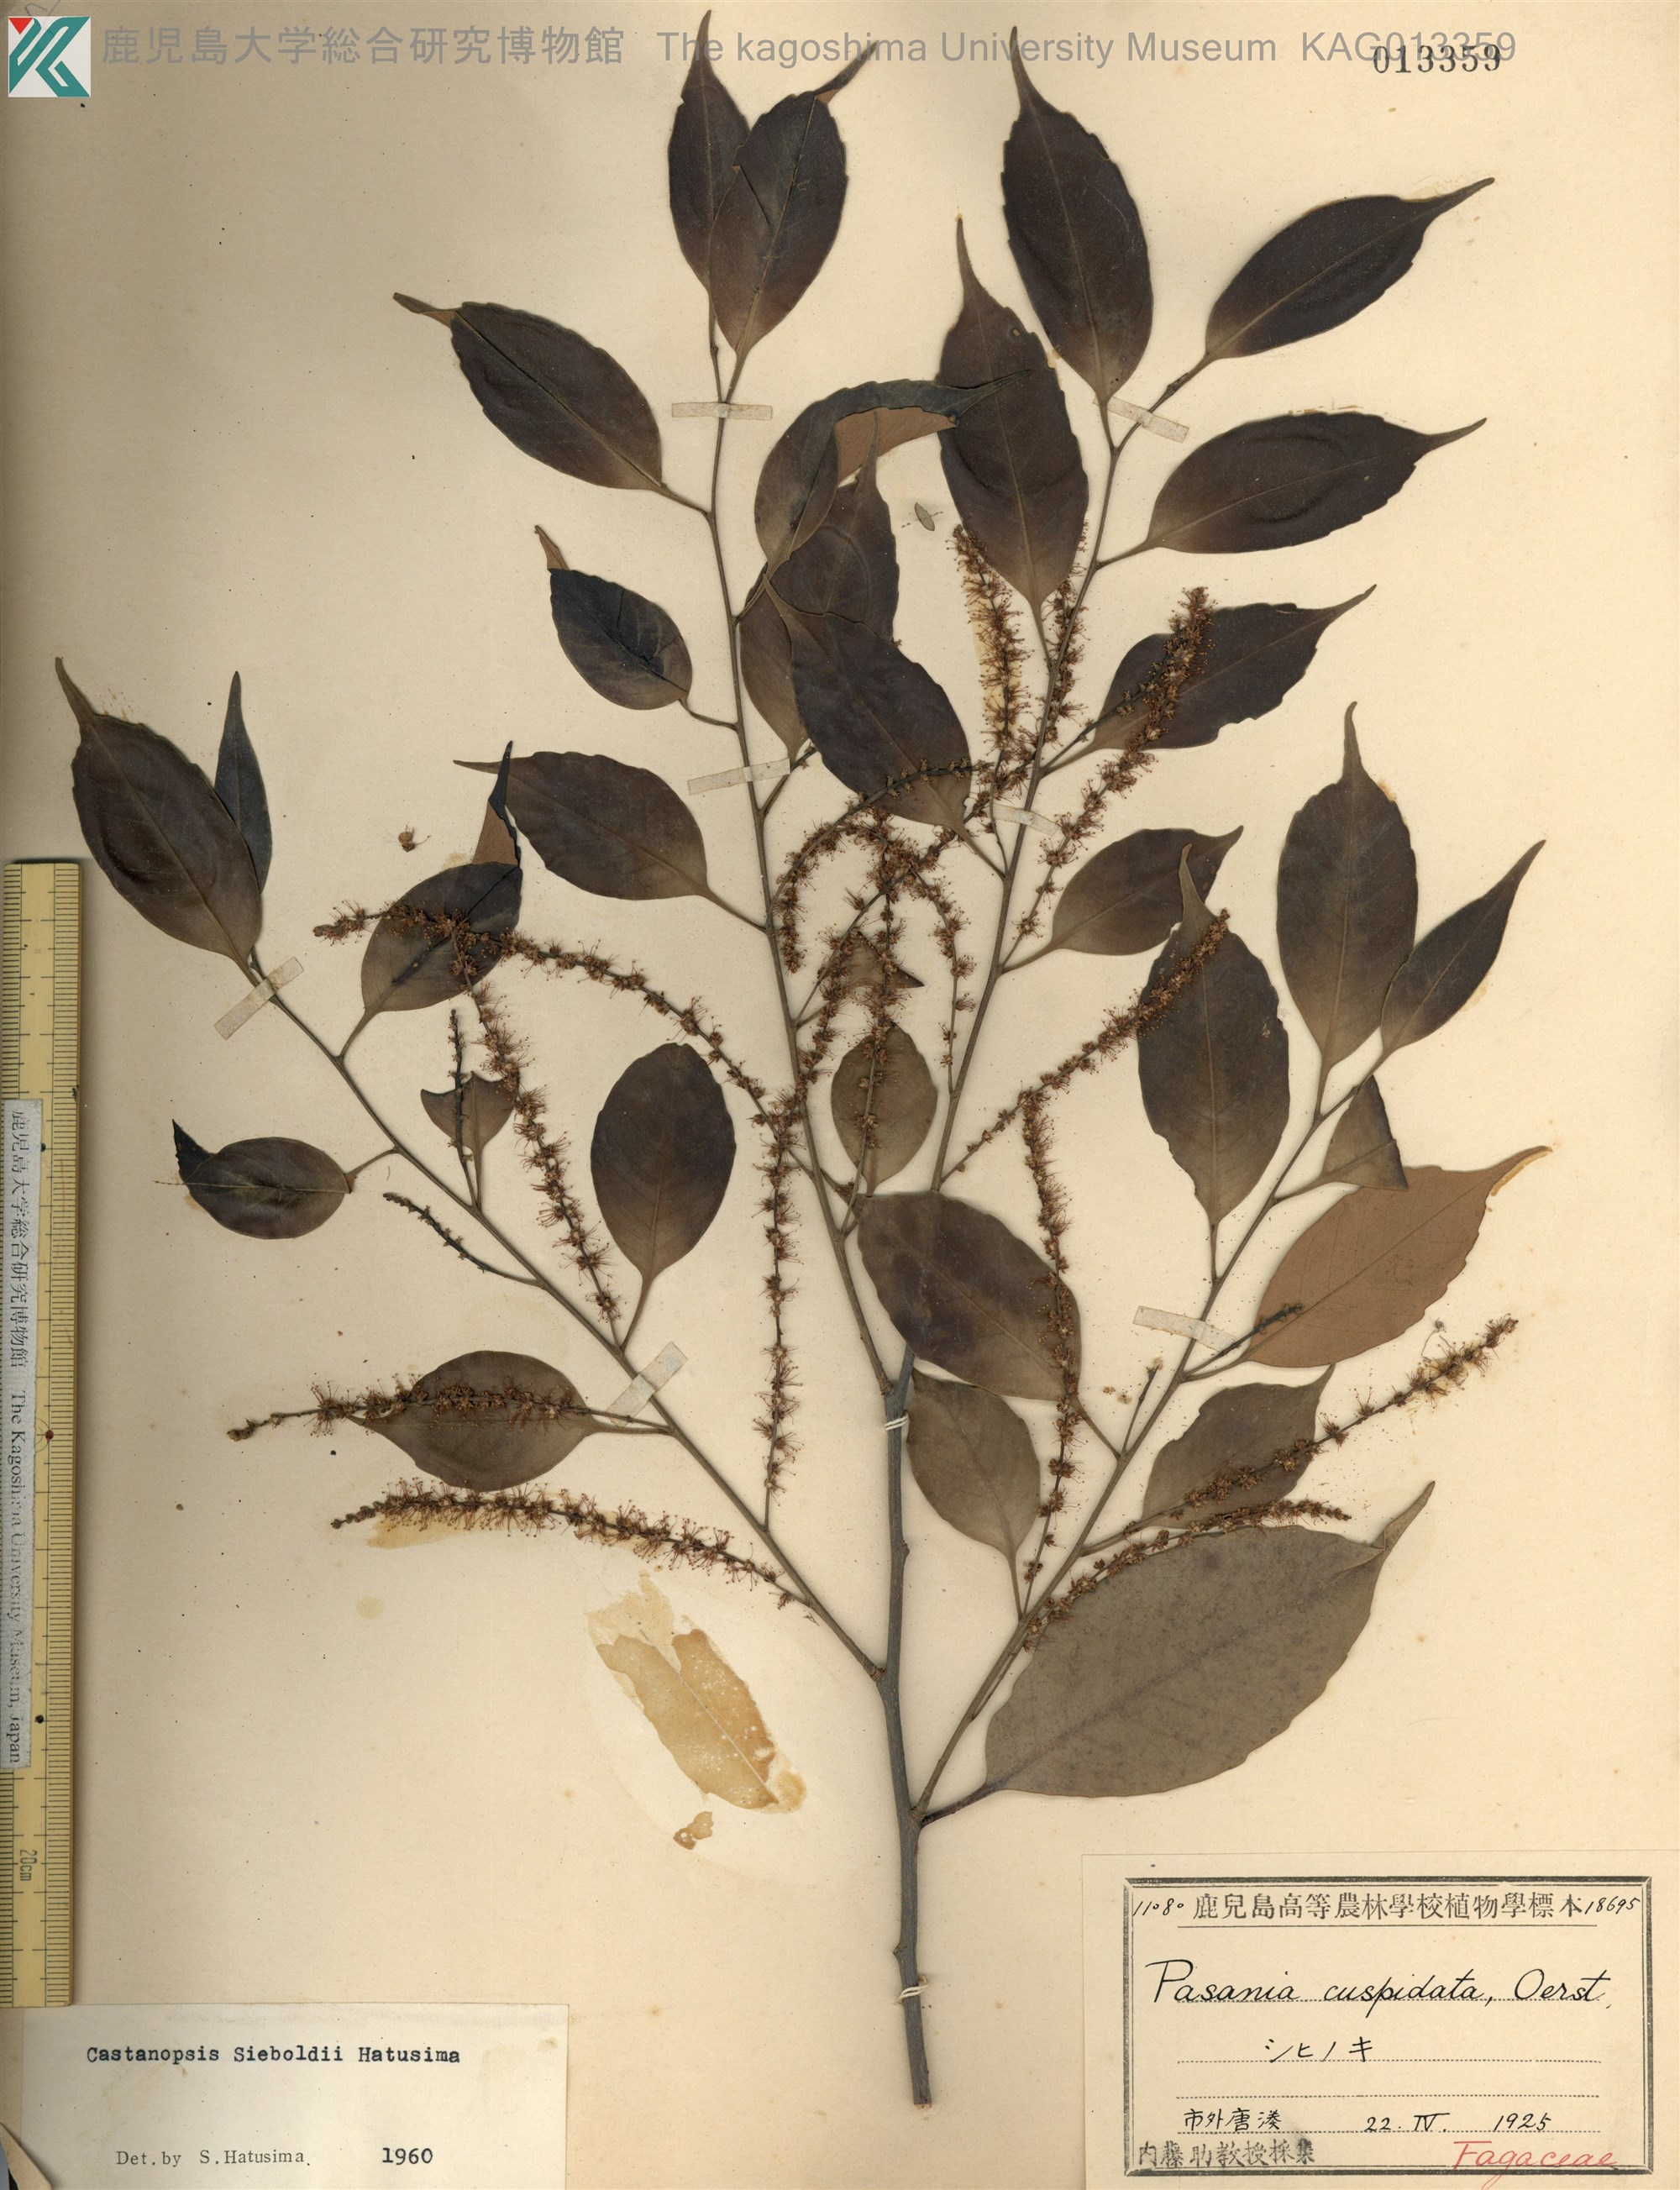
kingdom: Plantae
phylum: Tracheophyta
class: Magnoliopsida
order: Fagales
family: Fagaceae
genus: Castanopsis
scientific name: Castanopsis sieboldii
